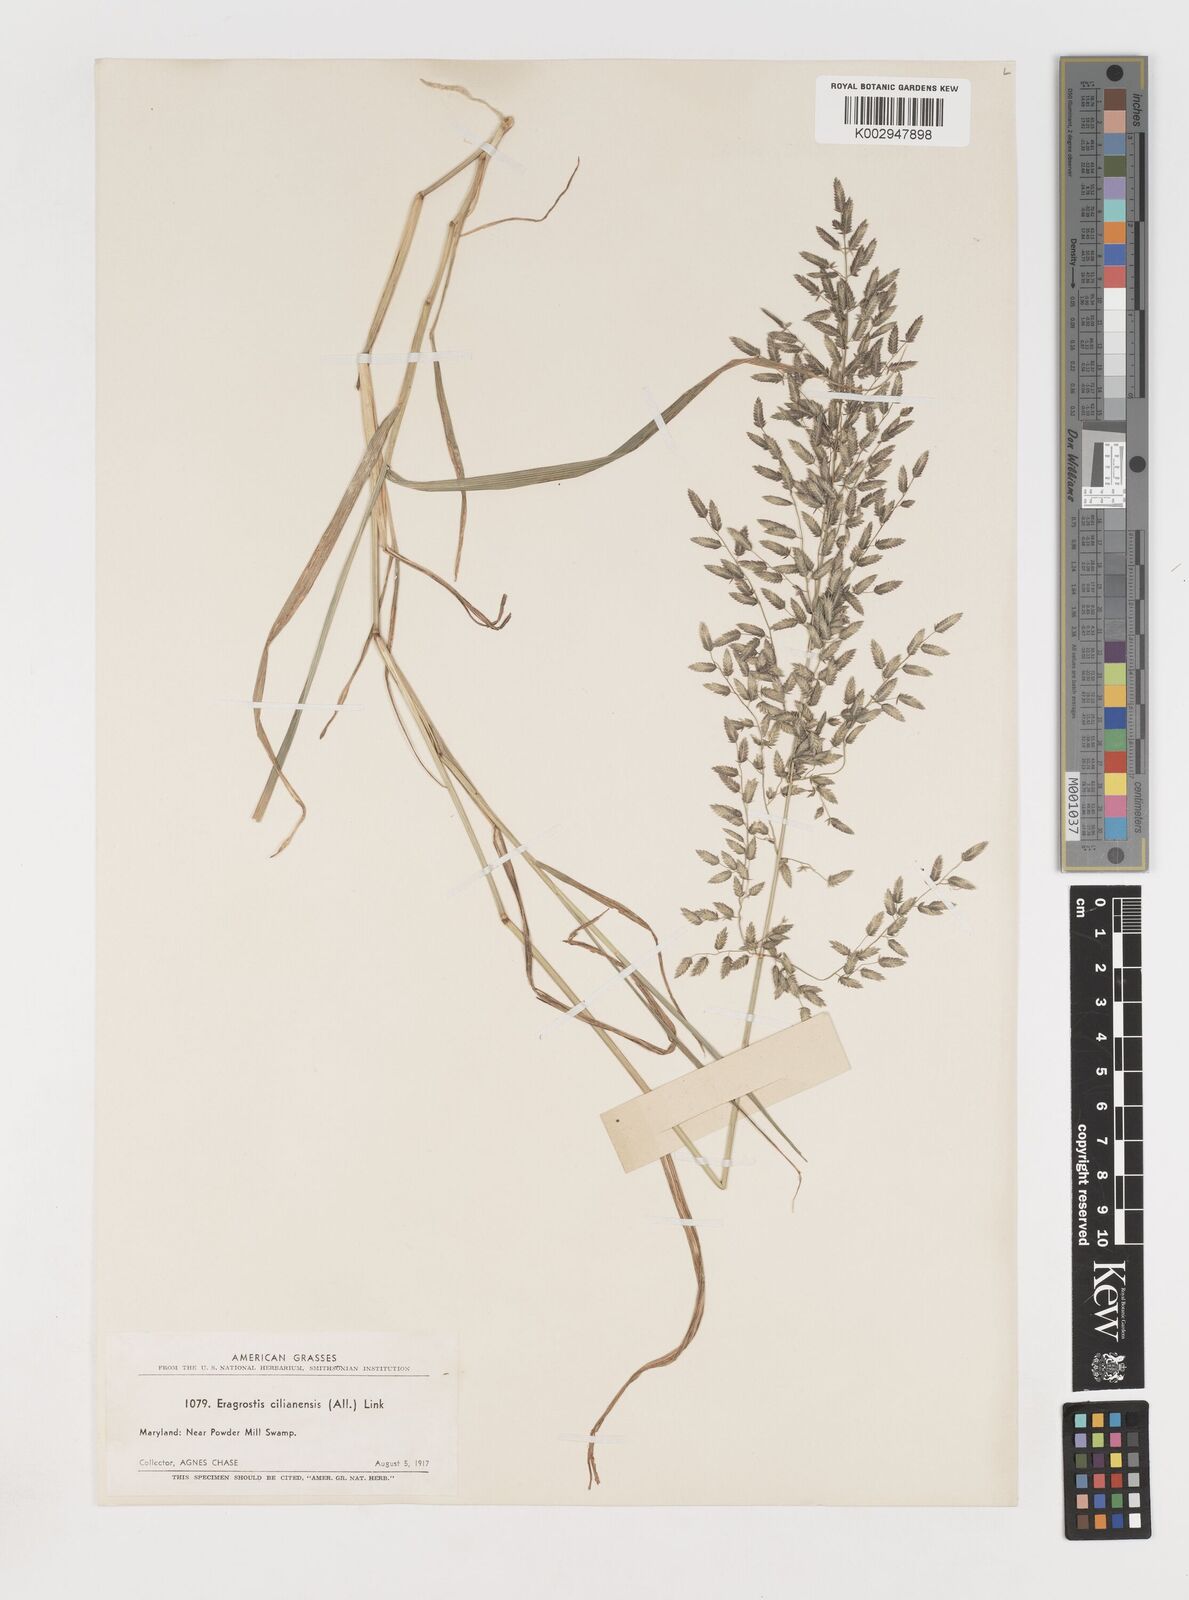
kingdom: Plantae
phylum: Tracheophyta
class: Liliopsida
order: Poales
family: Poaceae
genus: Eragrostis
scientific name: Eragrostis cilianensis
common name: Stinkgrass
